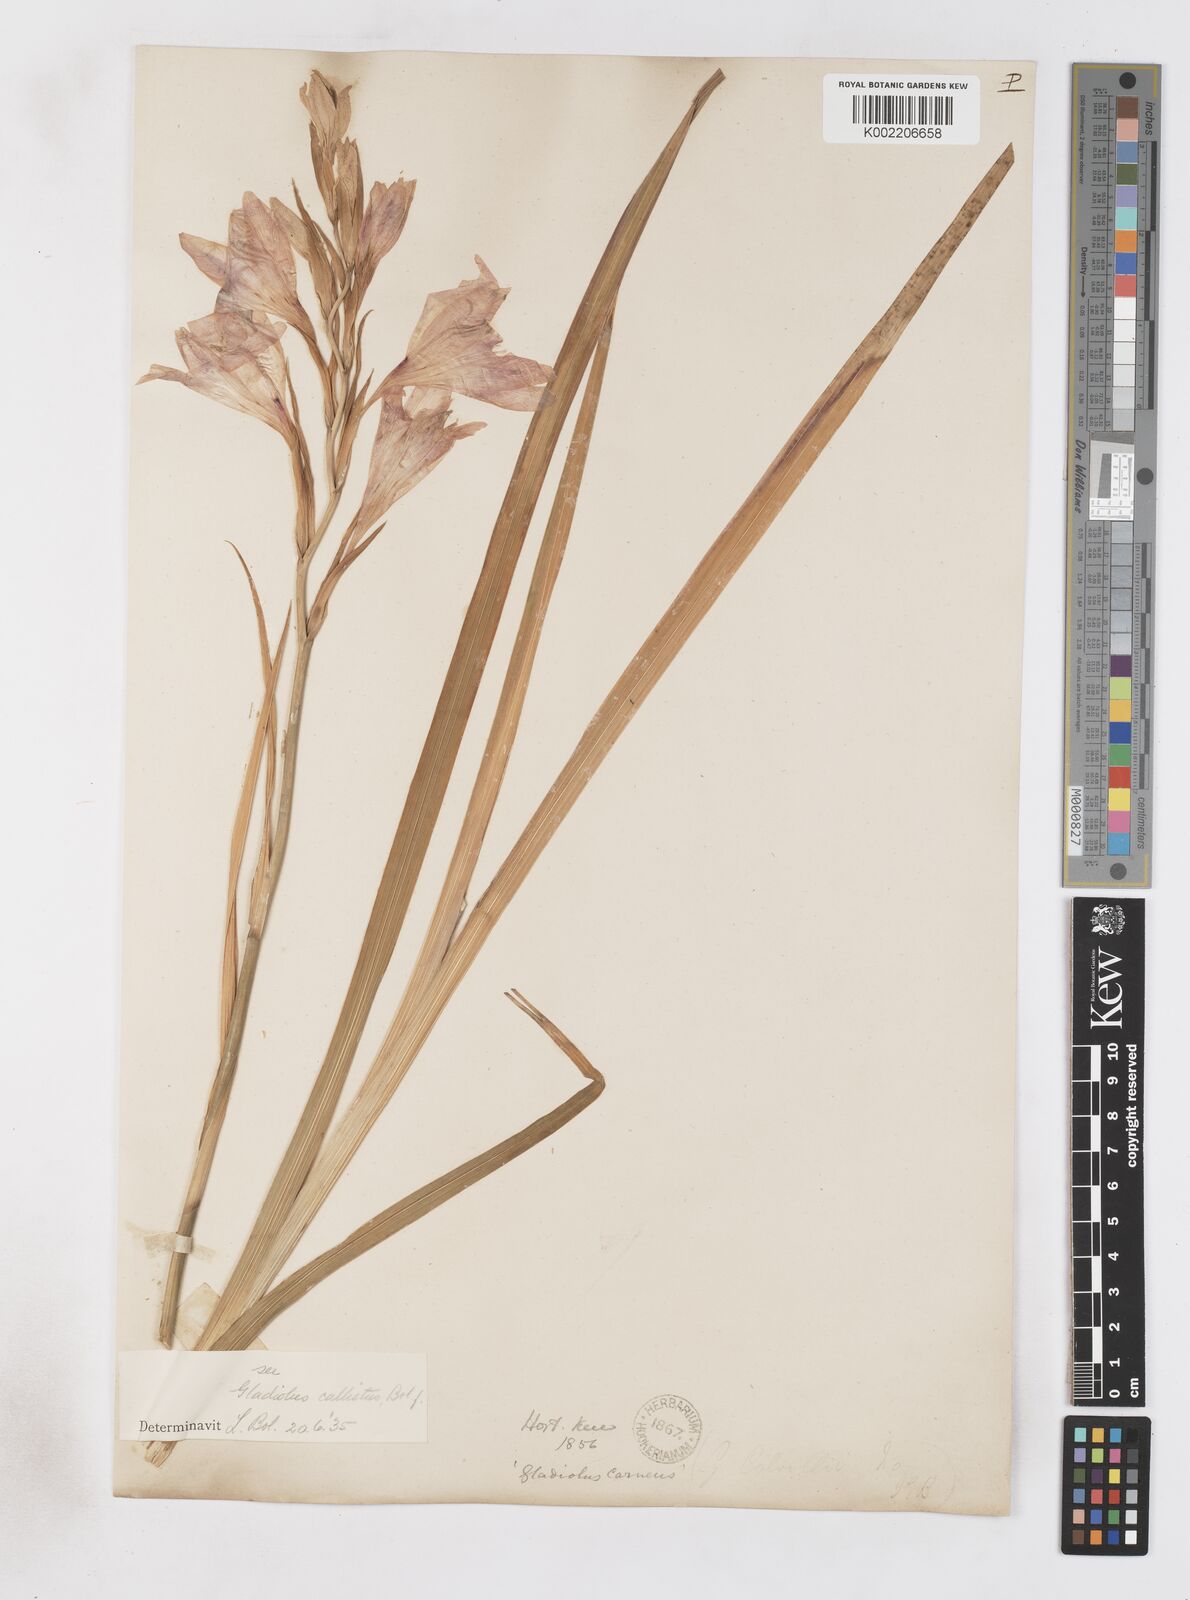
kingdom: Plantae
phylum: Tracheophyta
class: Liliopsida
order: Asparagales
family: Iridaceae
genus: Gladiolus
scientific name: Gladiolus carneus
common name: Painted-lady
